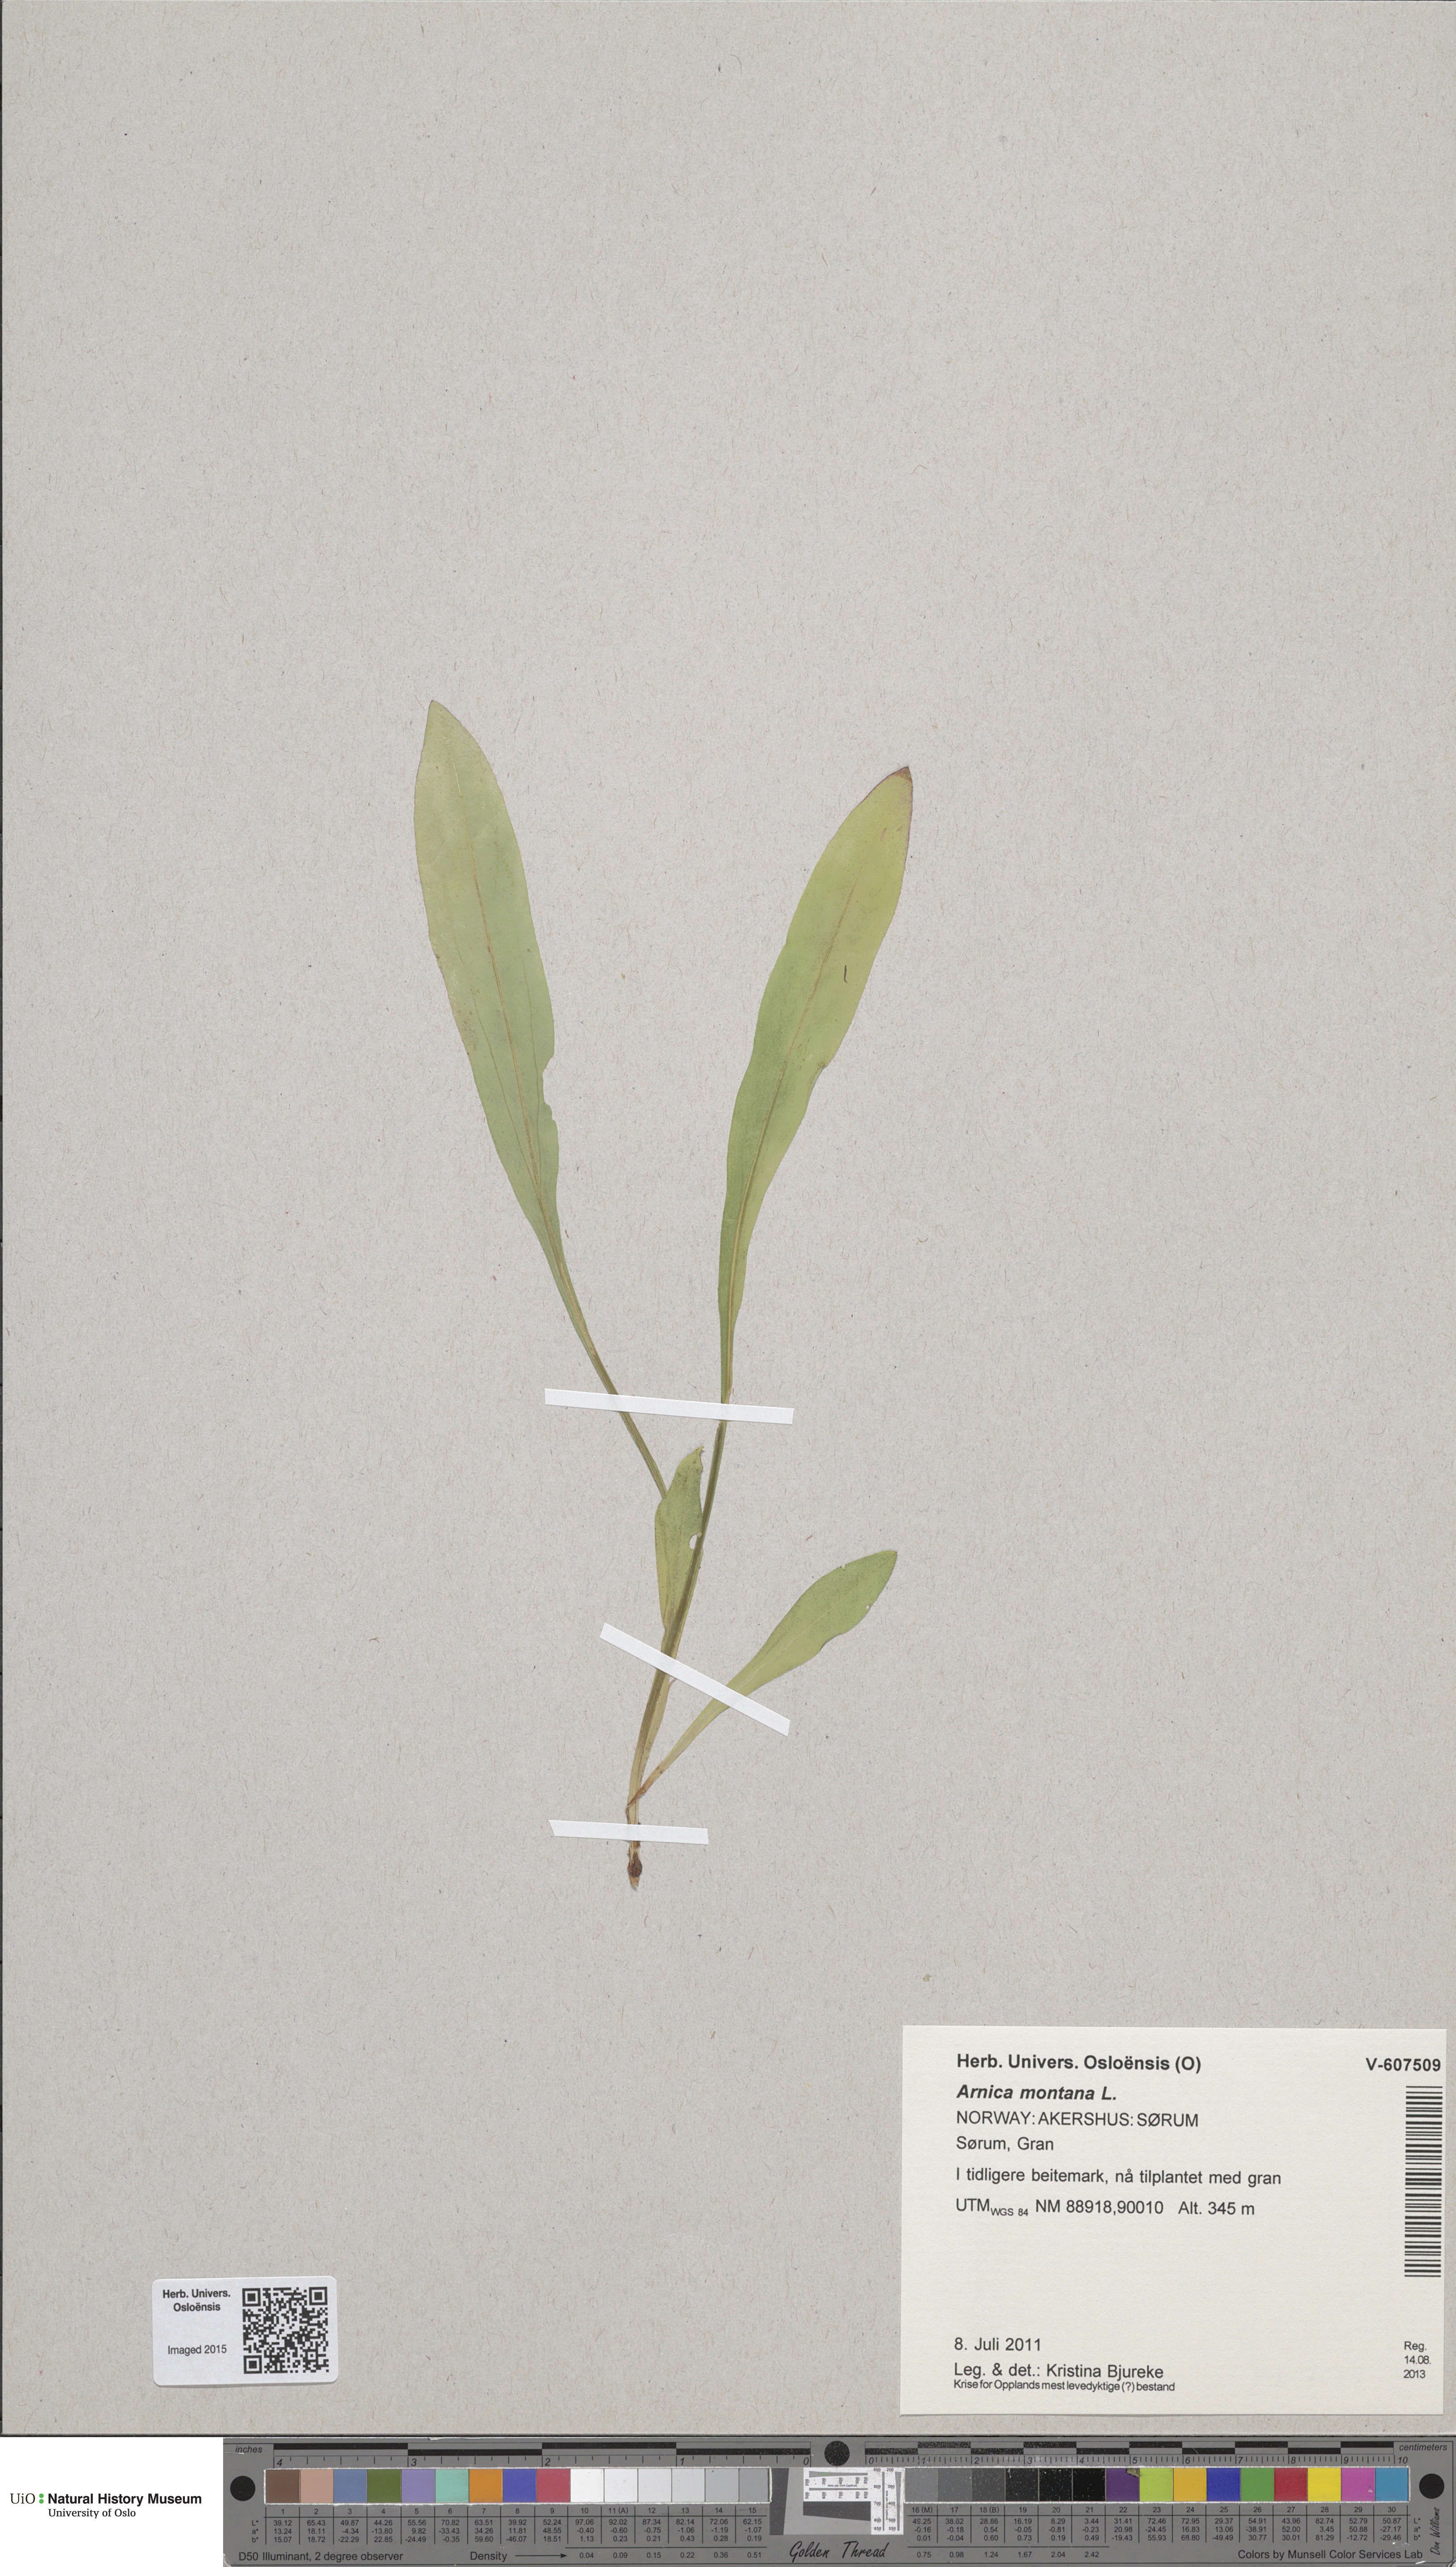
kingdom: Plantae
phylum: Tracheophyta
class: Magnoliopsida
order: Asterales
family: Asteraceae
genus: Arnica
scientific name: Arnica montana
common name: Leopard's bane
